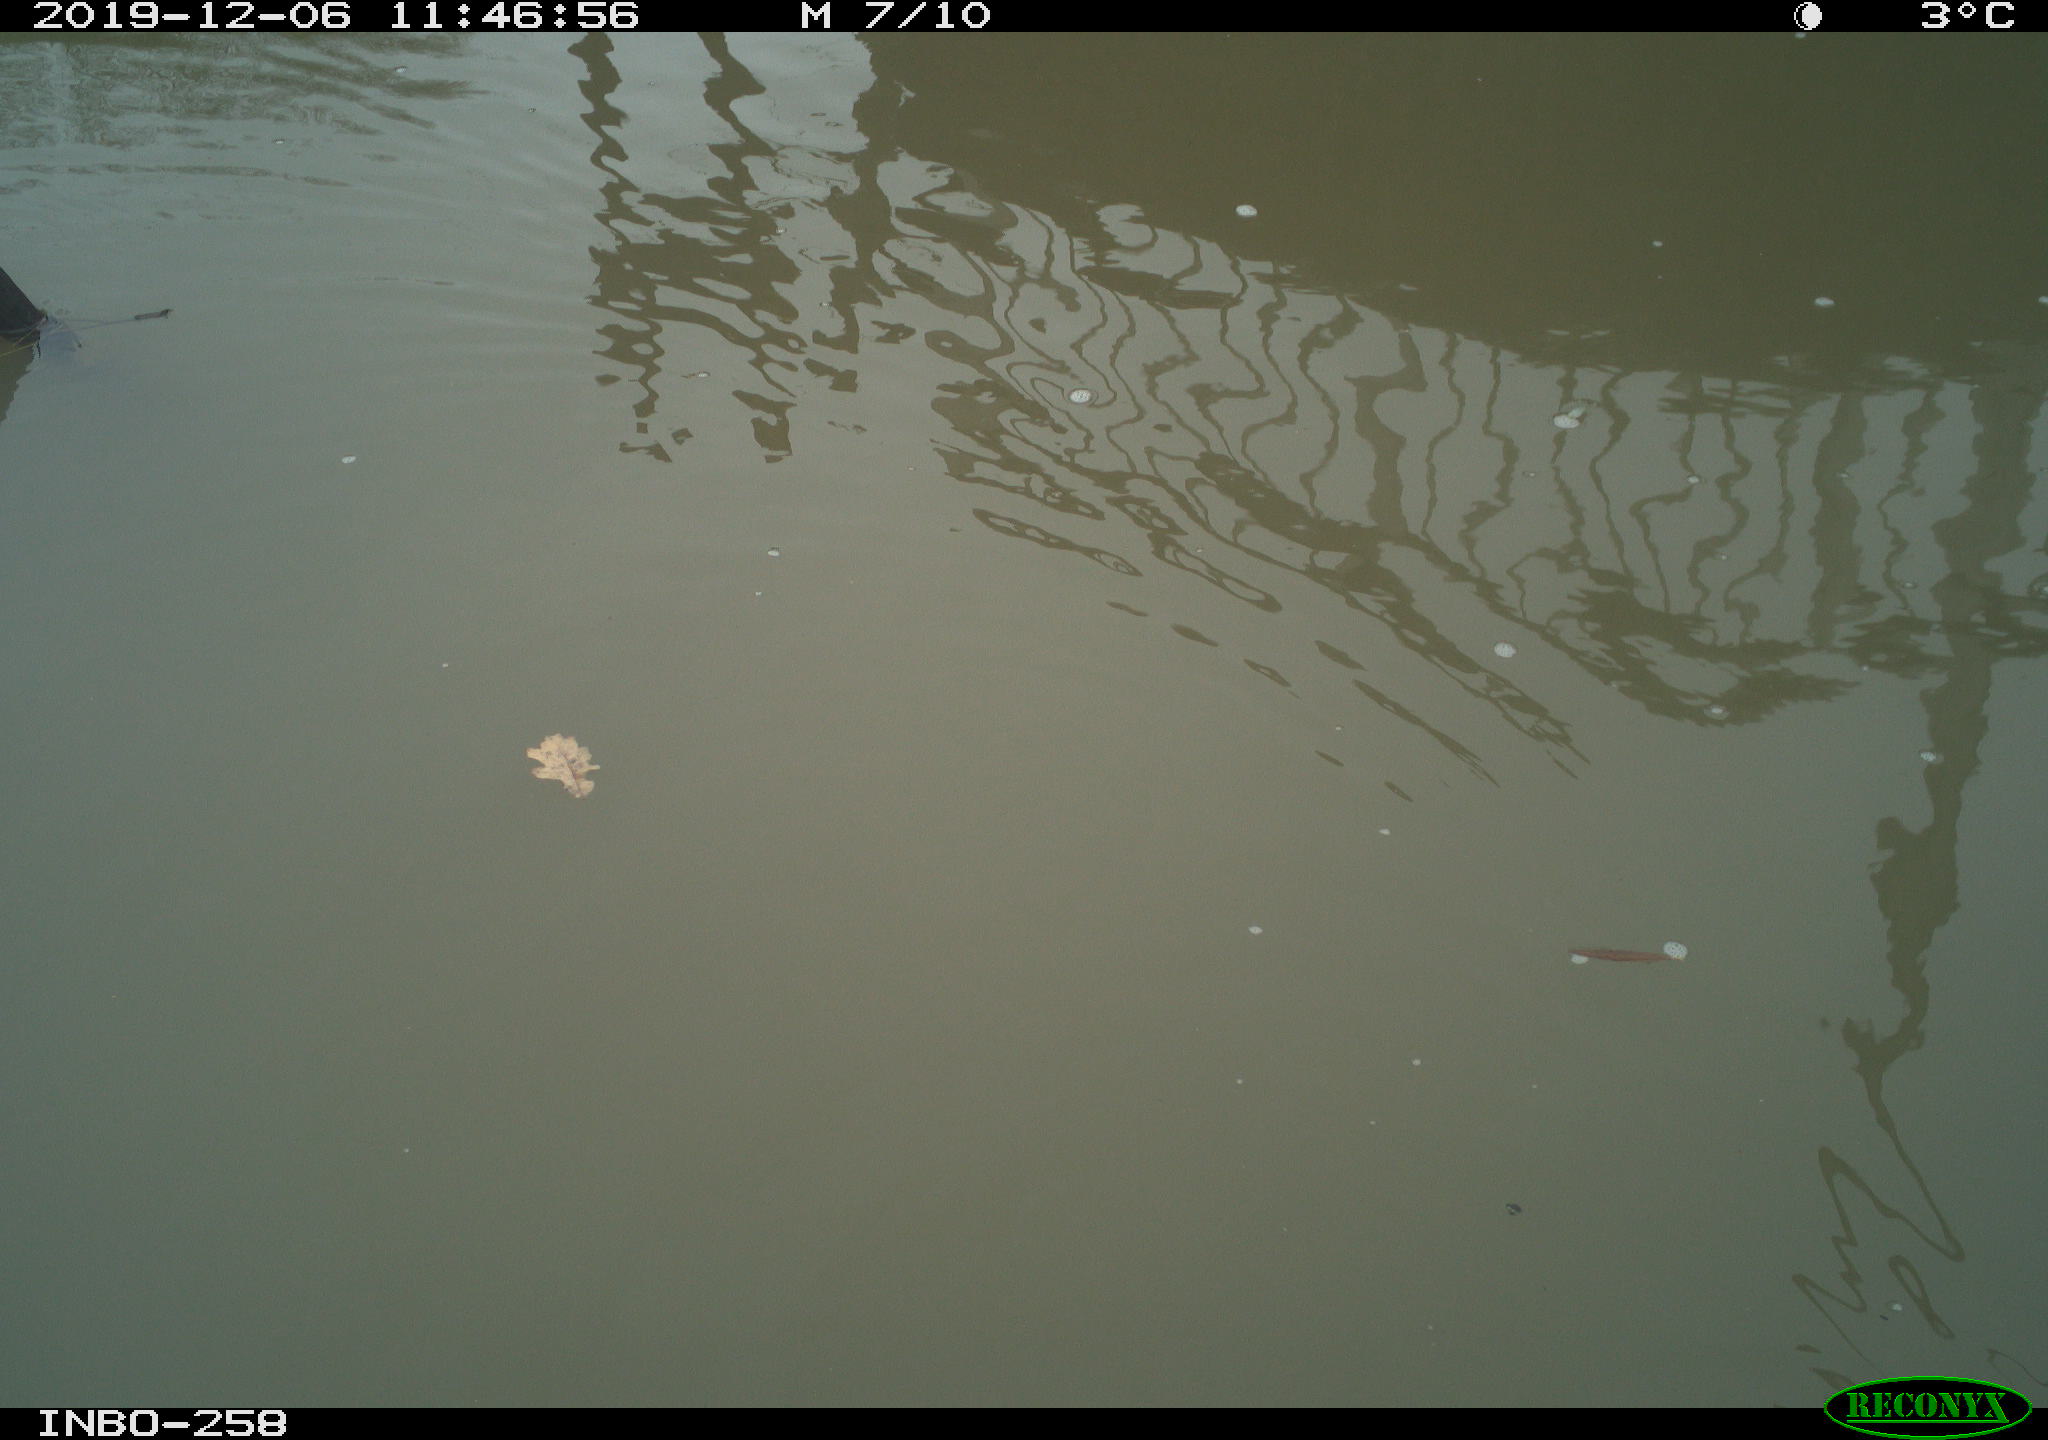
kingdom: Animalia
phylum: Chordata
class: Aves
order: Gruiformes
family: Rallidae
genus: Gallinula
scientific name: Gallinula chloropus
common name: Common moorhen
